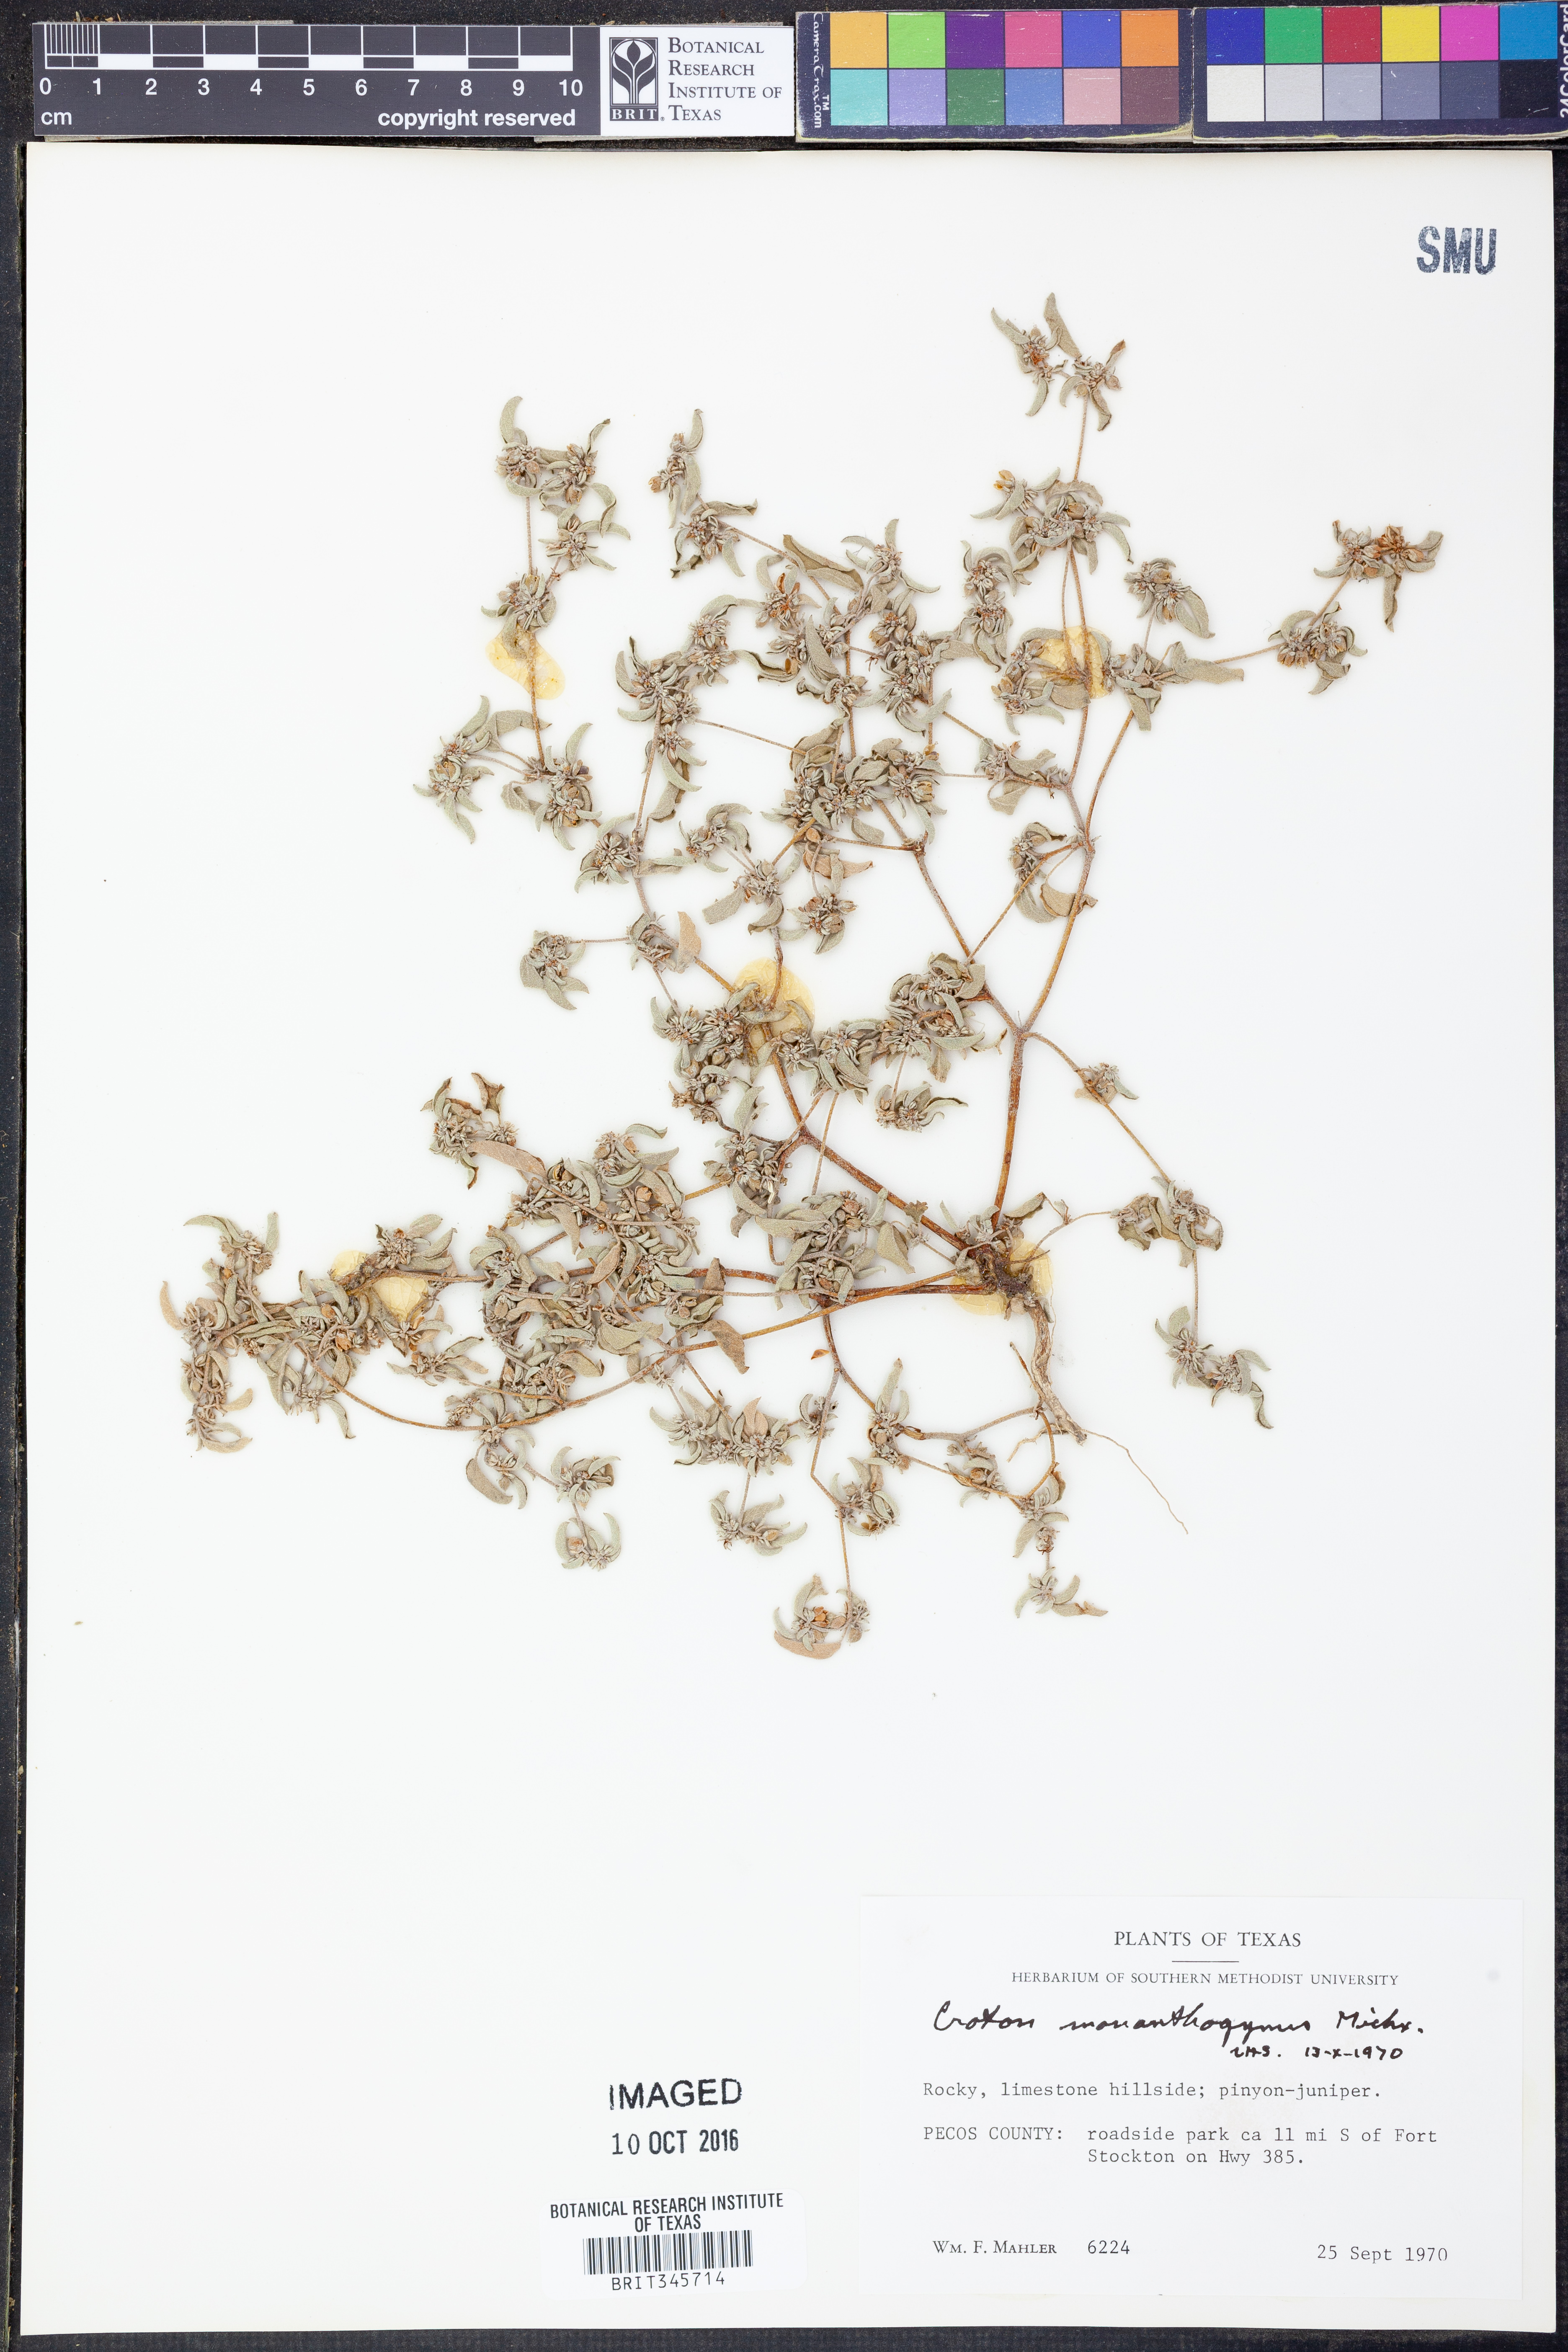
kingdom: Plantae
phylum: Tracheophyta
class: Magnoliopsida
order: Malpighiales
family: Euphorbiaceae
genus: Croton
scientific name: Croton monanthogynus
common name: One-seed croton
